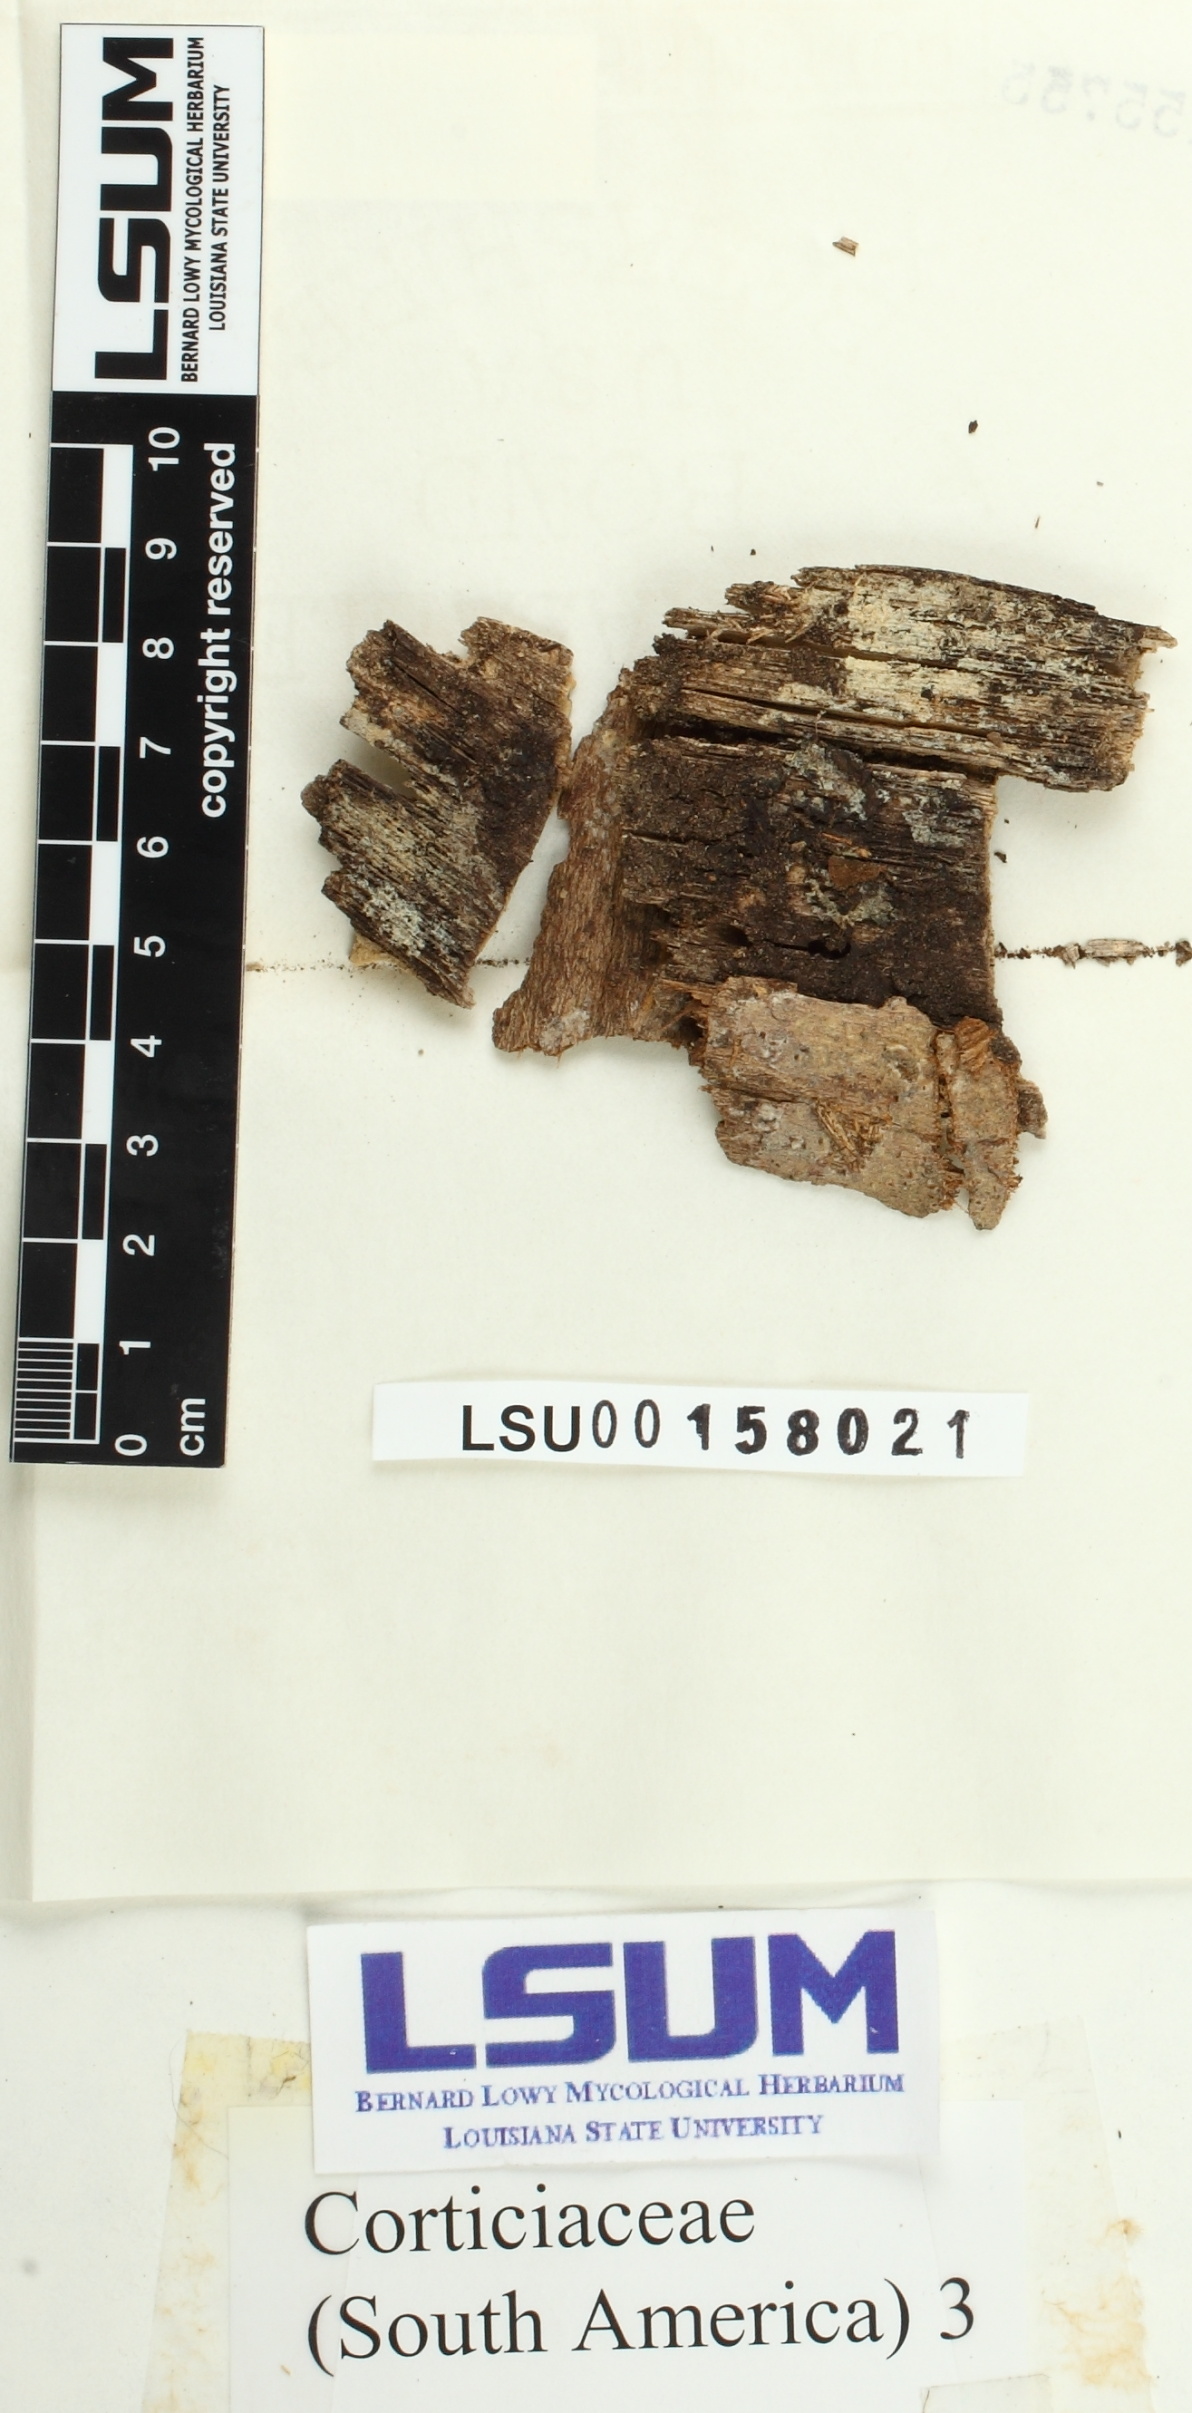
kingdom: Fungi
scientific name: Fungi
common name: Fungi
